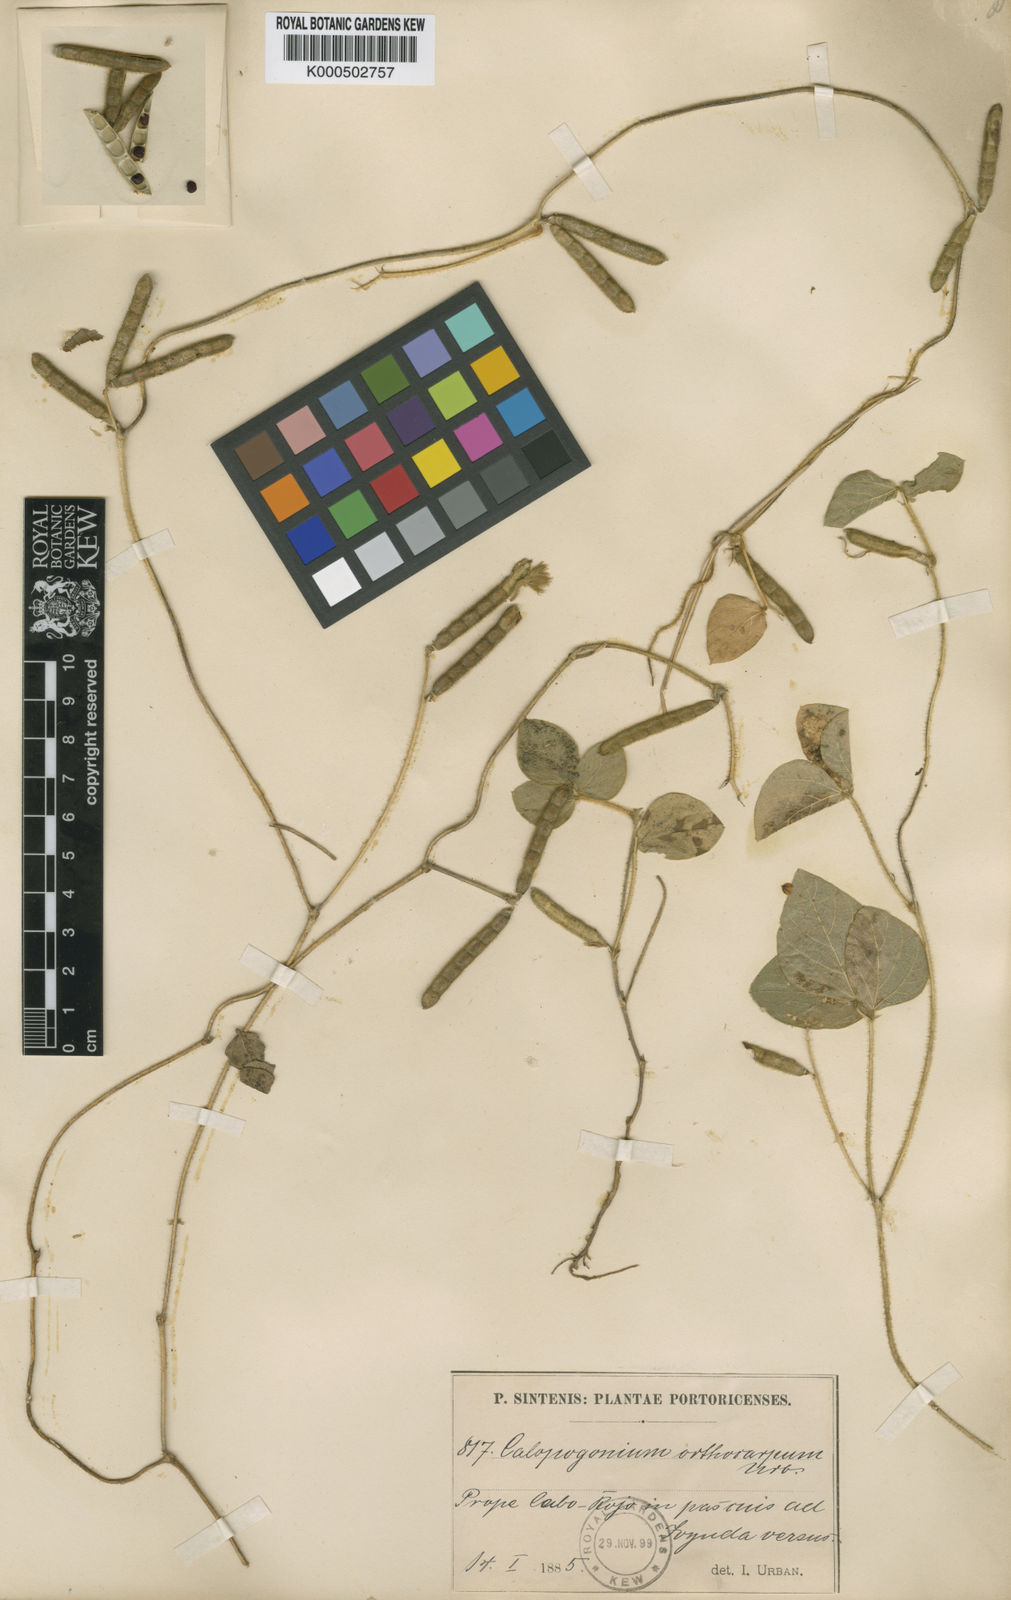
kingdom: Plantae
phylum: Tracheophyta
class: Magnoliopsida
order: Fabales
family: Fabaceae
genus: Calopogonium
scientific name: Calopogonium mucunoides
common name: Calopo
